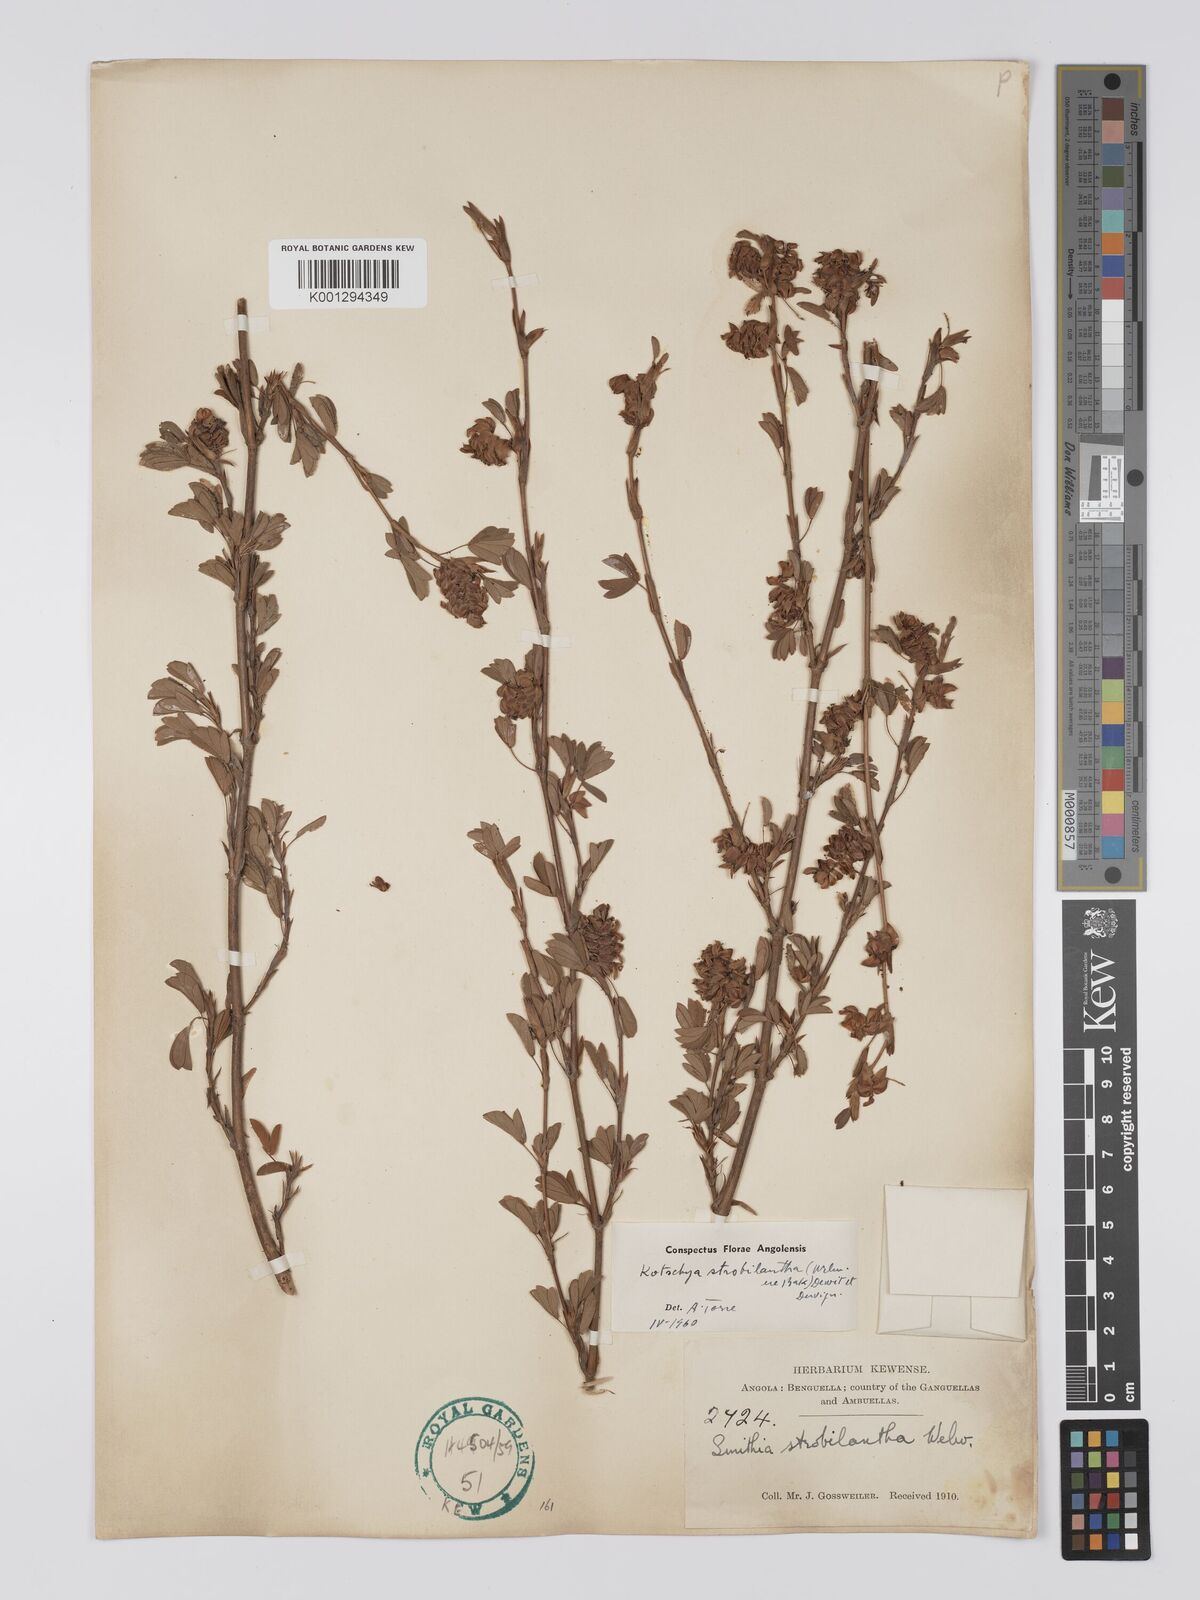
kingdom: Plantae
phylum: Tracheophyta
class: Magnoliopsida
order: Fabales
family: Fabaceae
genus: Kotschya
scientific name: Kotschya strobilantha
